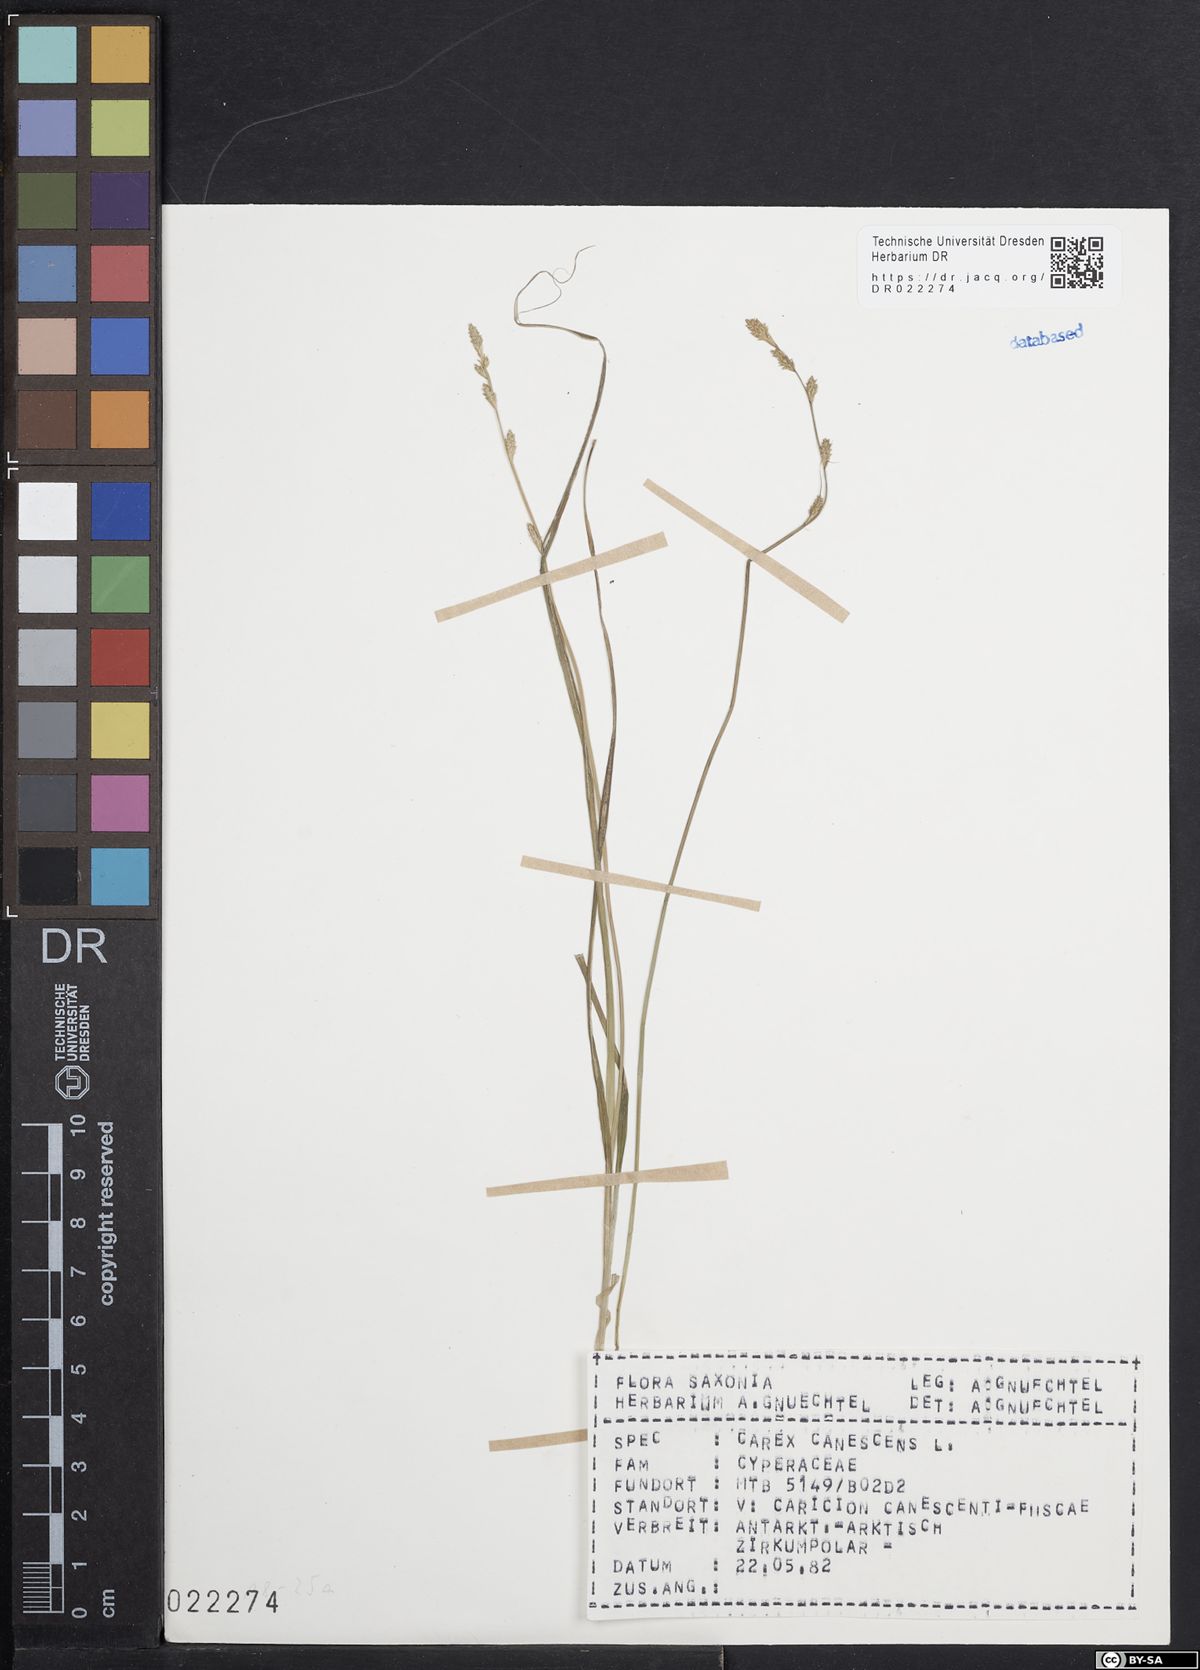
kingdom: Plantae
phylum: Tracheophyta
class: Liliopsida
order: Poales
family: Cyperaceae
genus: Carex
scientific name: Carex canescens
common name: White sedge
